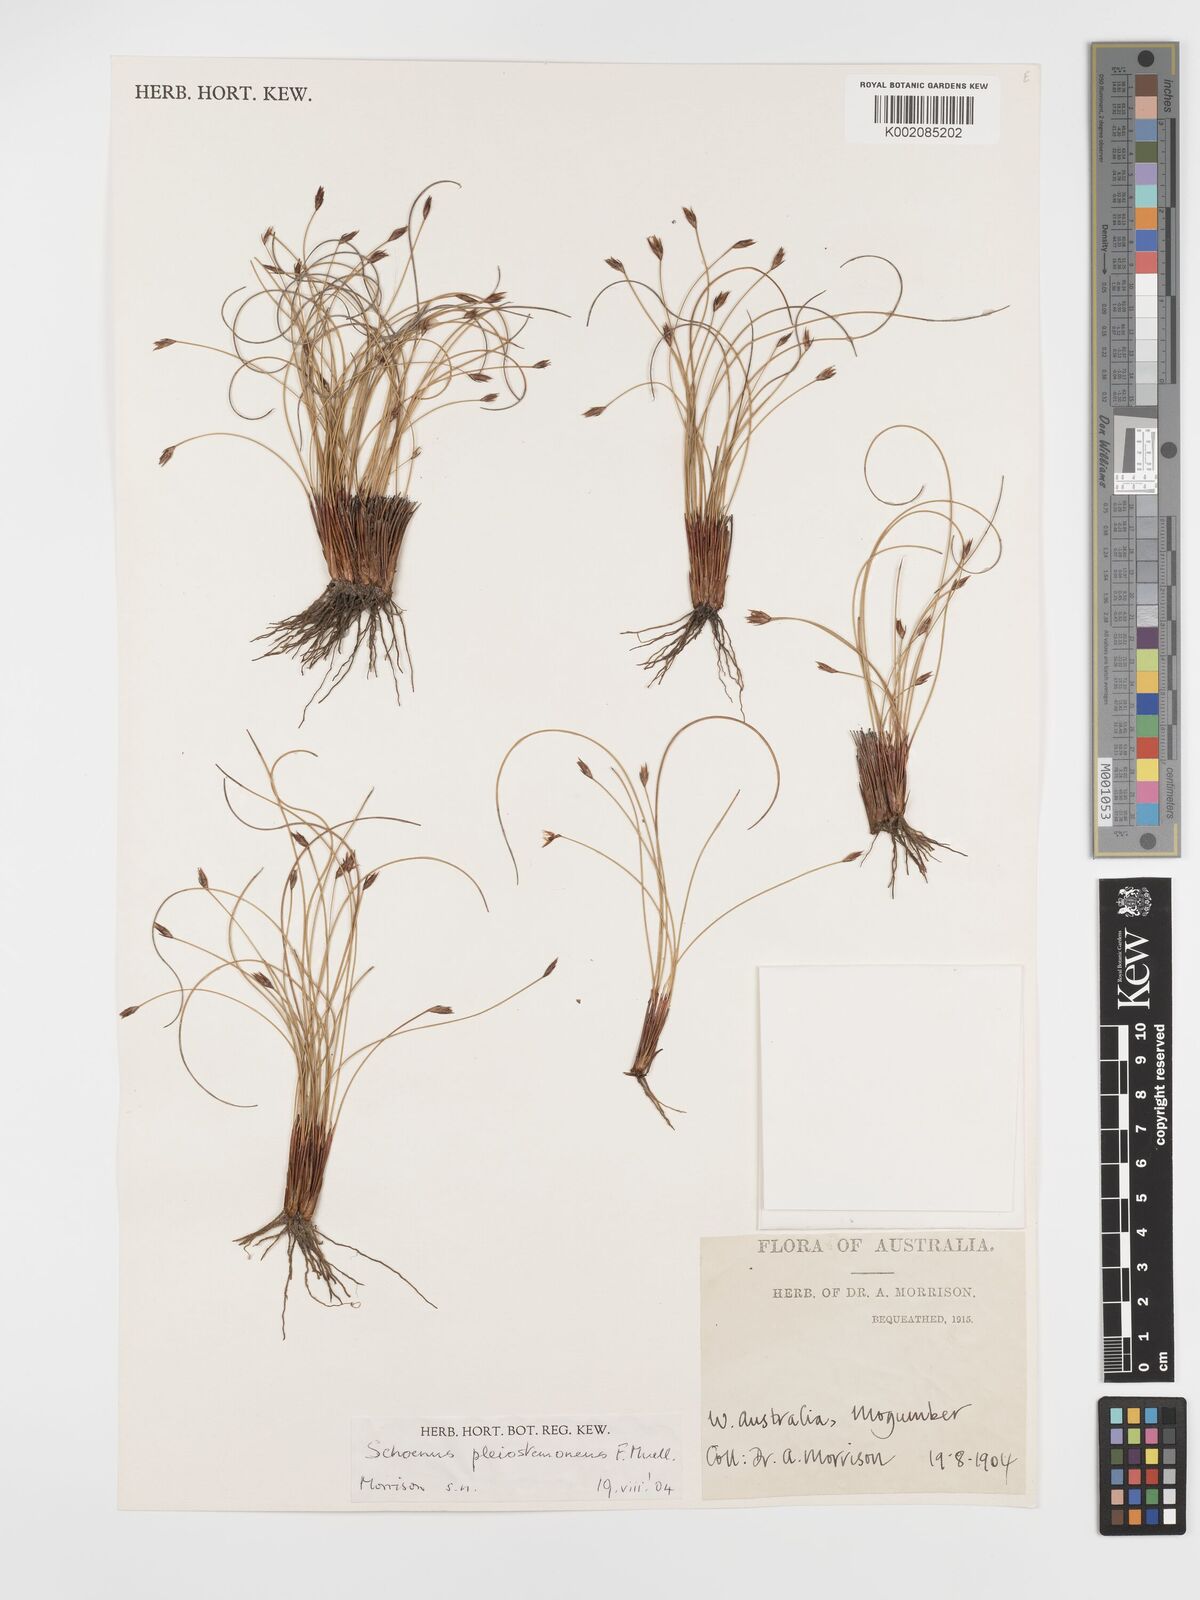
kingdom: Plantae
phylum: Tracheophyta
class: Liliopsida
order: Poales
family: Cyperaceae
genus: Schoenus
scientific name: Schoenus pleiostemoneus
